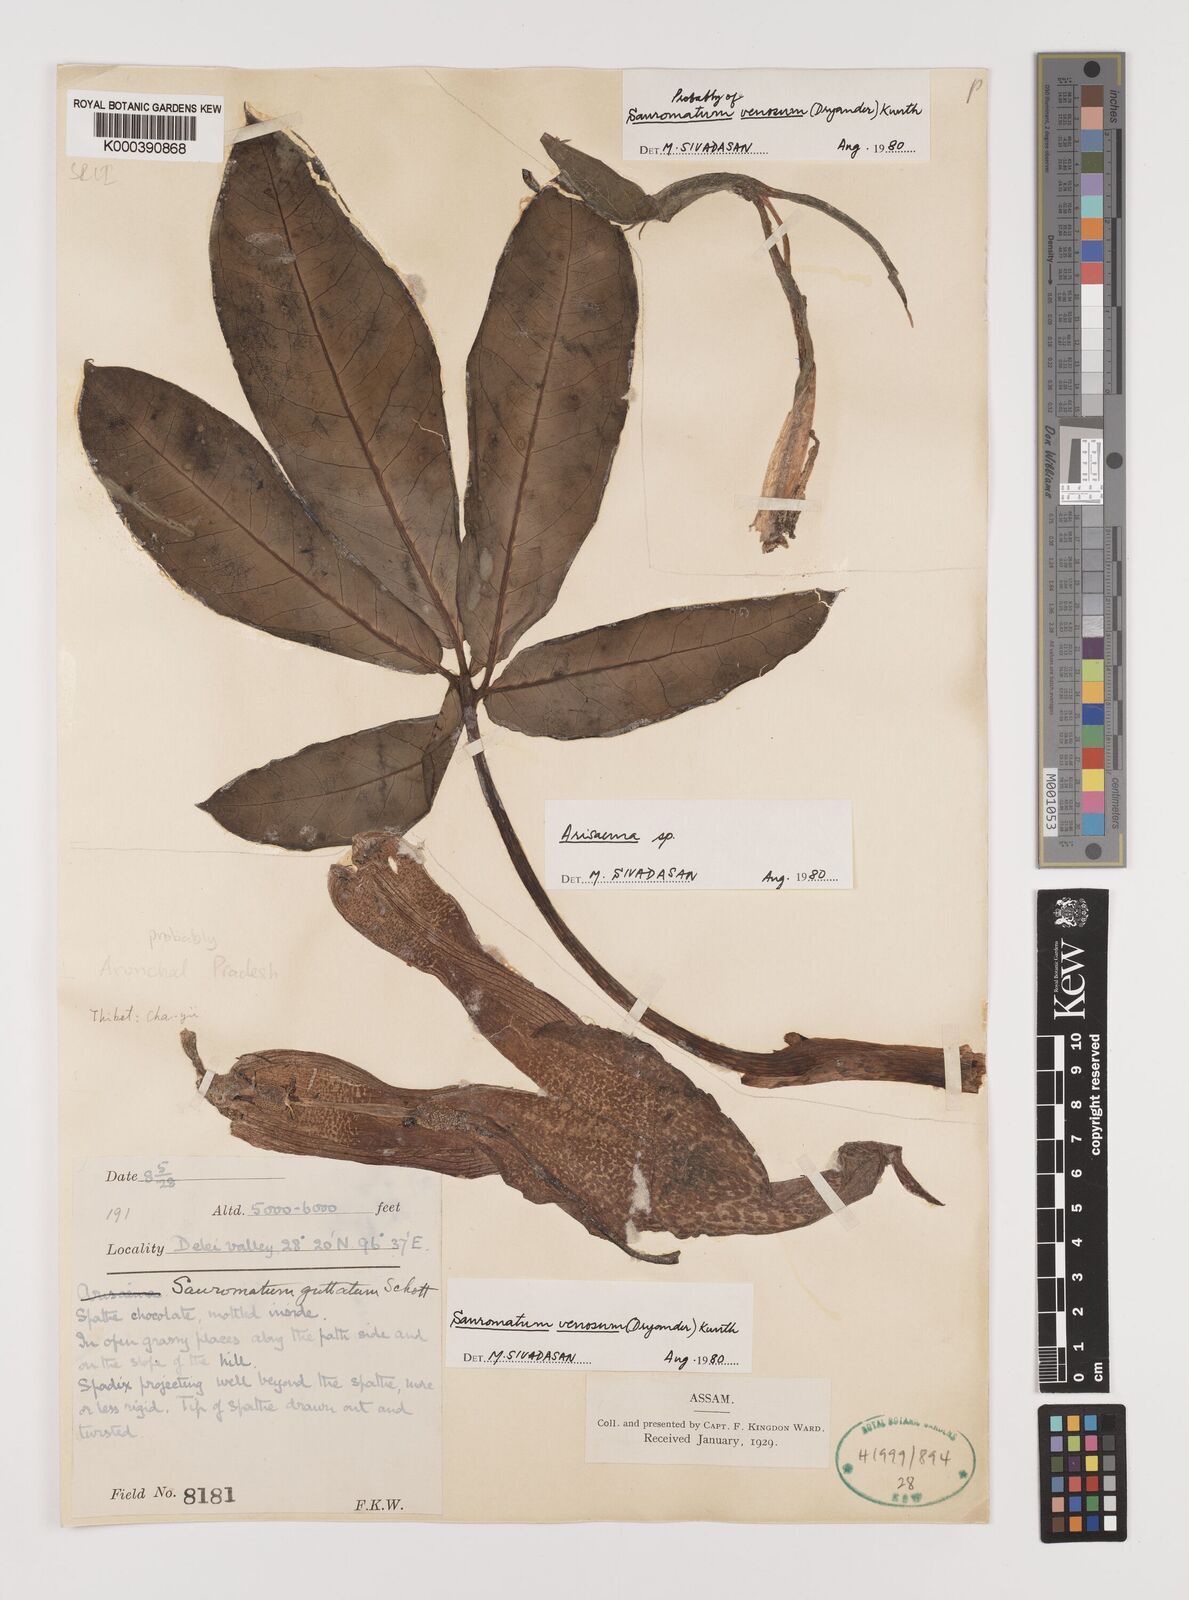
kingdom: Plantae
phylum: Tracheophyta
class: Liliopsida
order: Alismatales
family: Araceae
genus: Sauromatum
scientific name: Sauromatum venosum
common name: Voodoo lily
